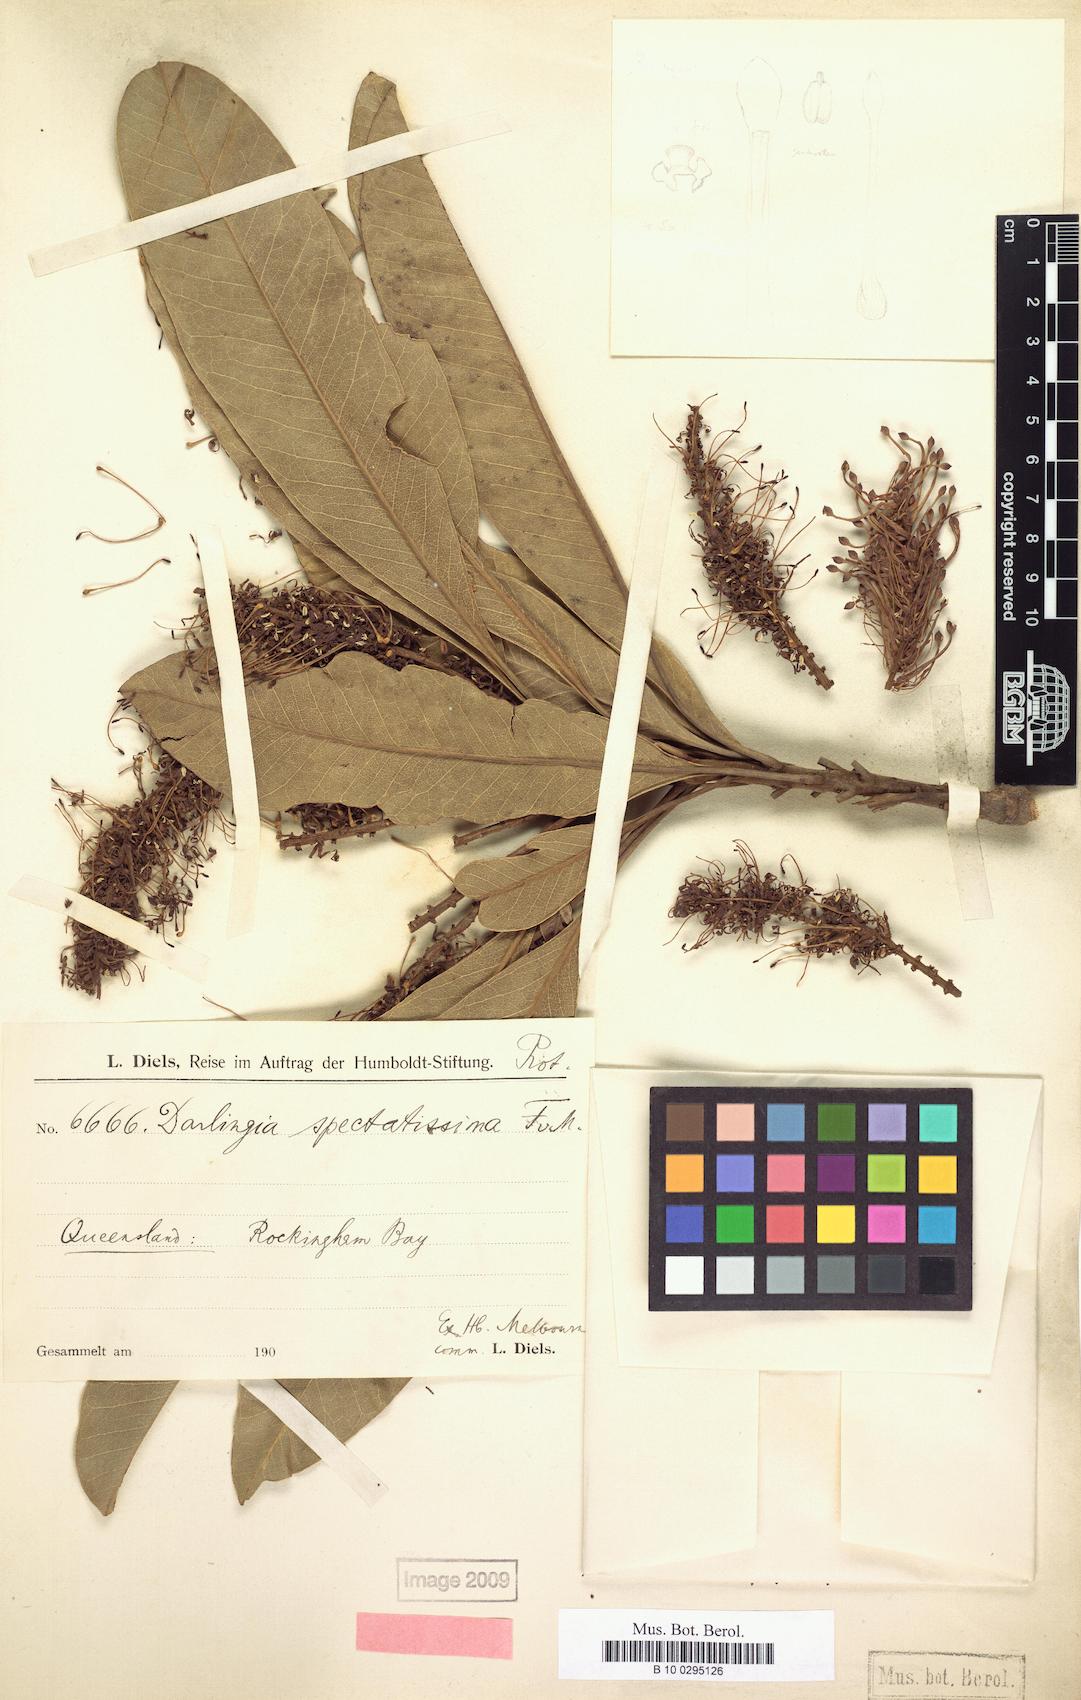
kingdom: Plantae
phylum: Tracheophyta
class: Magnoliopsida
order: Proteales
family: Proteaceae
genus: Darlingia
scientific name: Darlingia darlingiana
